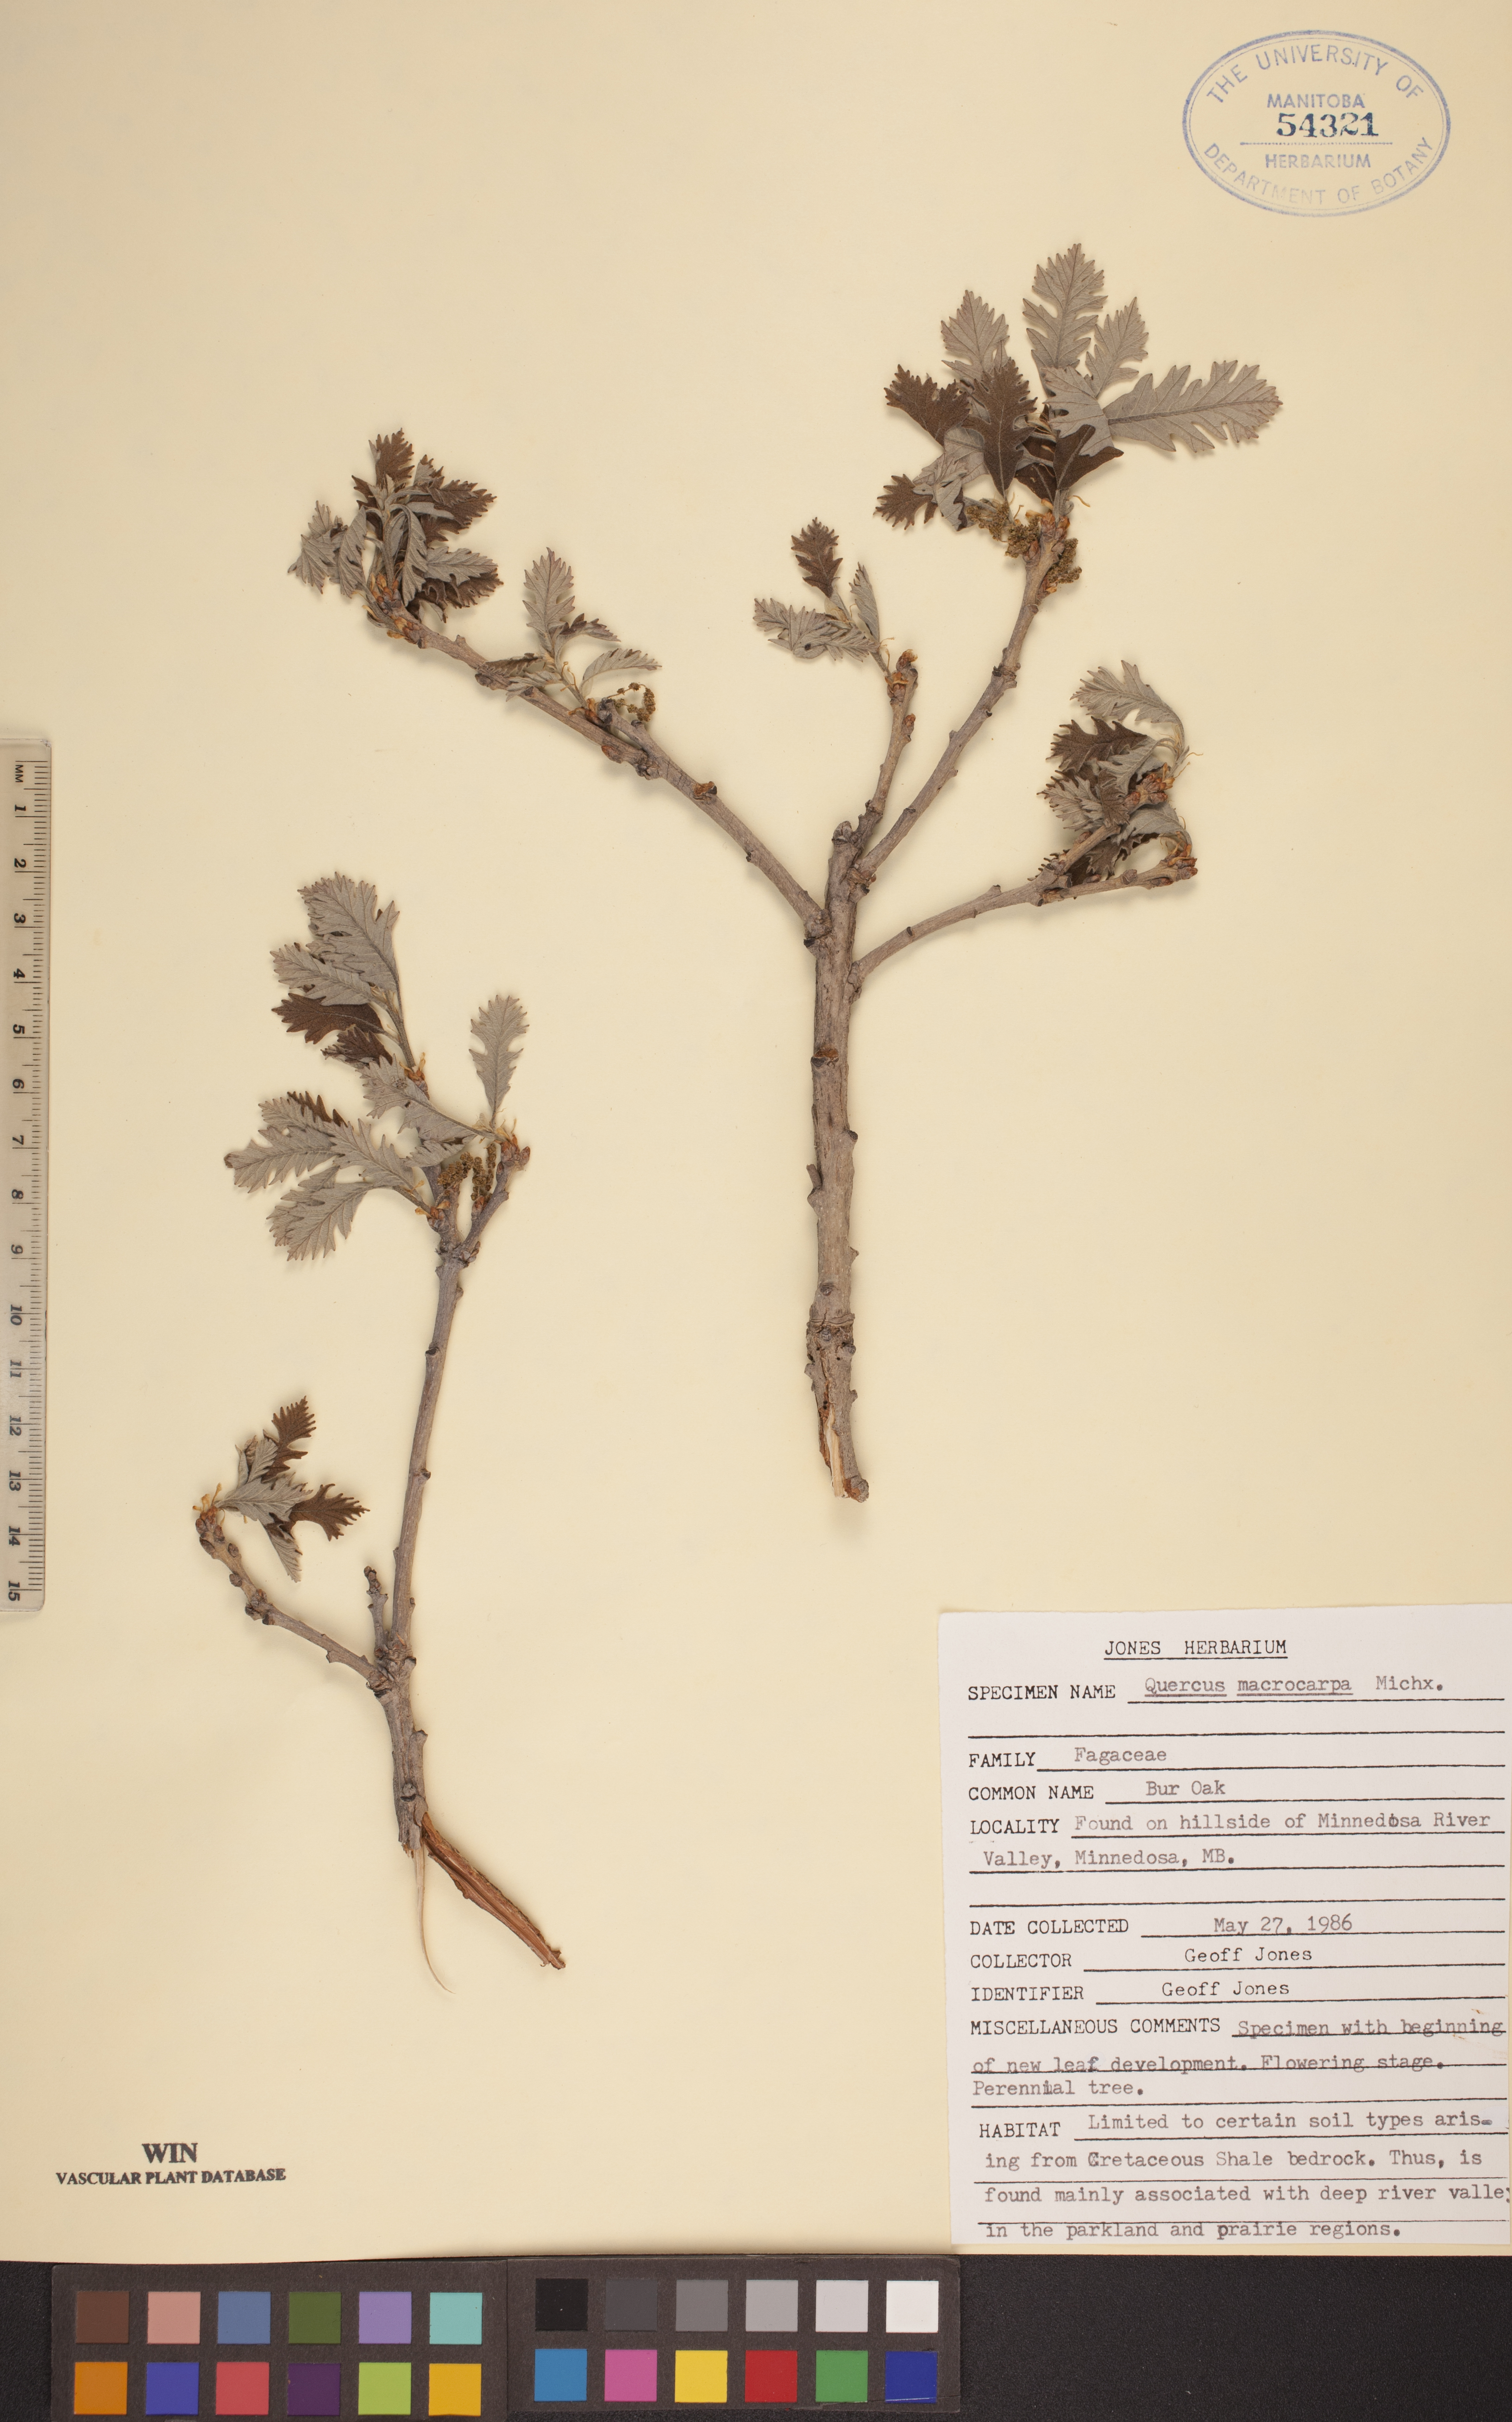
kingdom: Plantae
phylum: Tracheophyta
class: Magnoliopsida
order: Fagales
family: Fagaceae
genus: Quercus
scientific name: Quercus macrocarpa
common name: Bur oak
